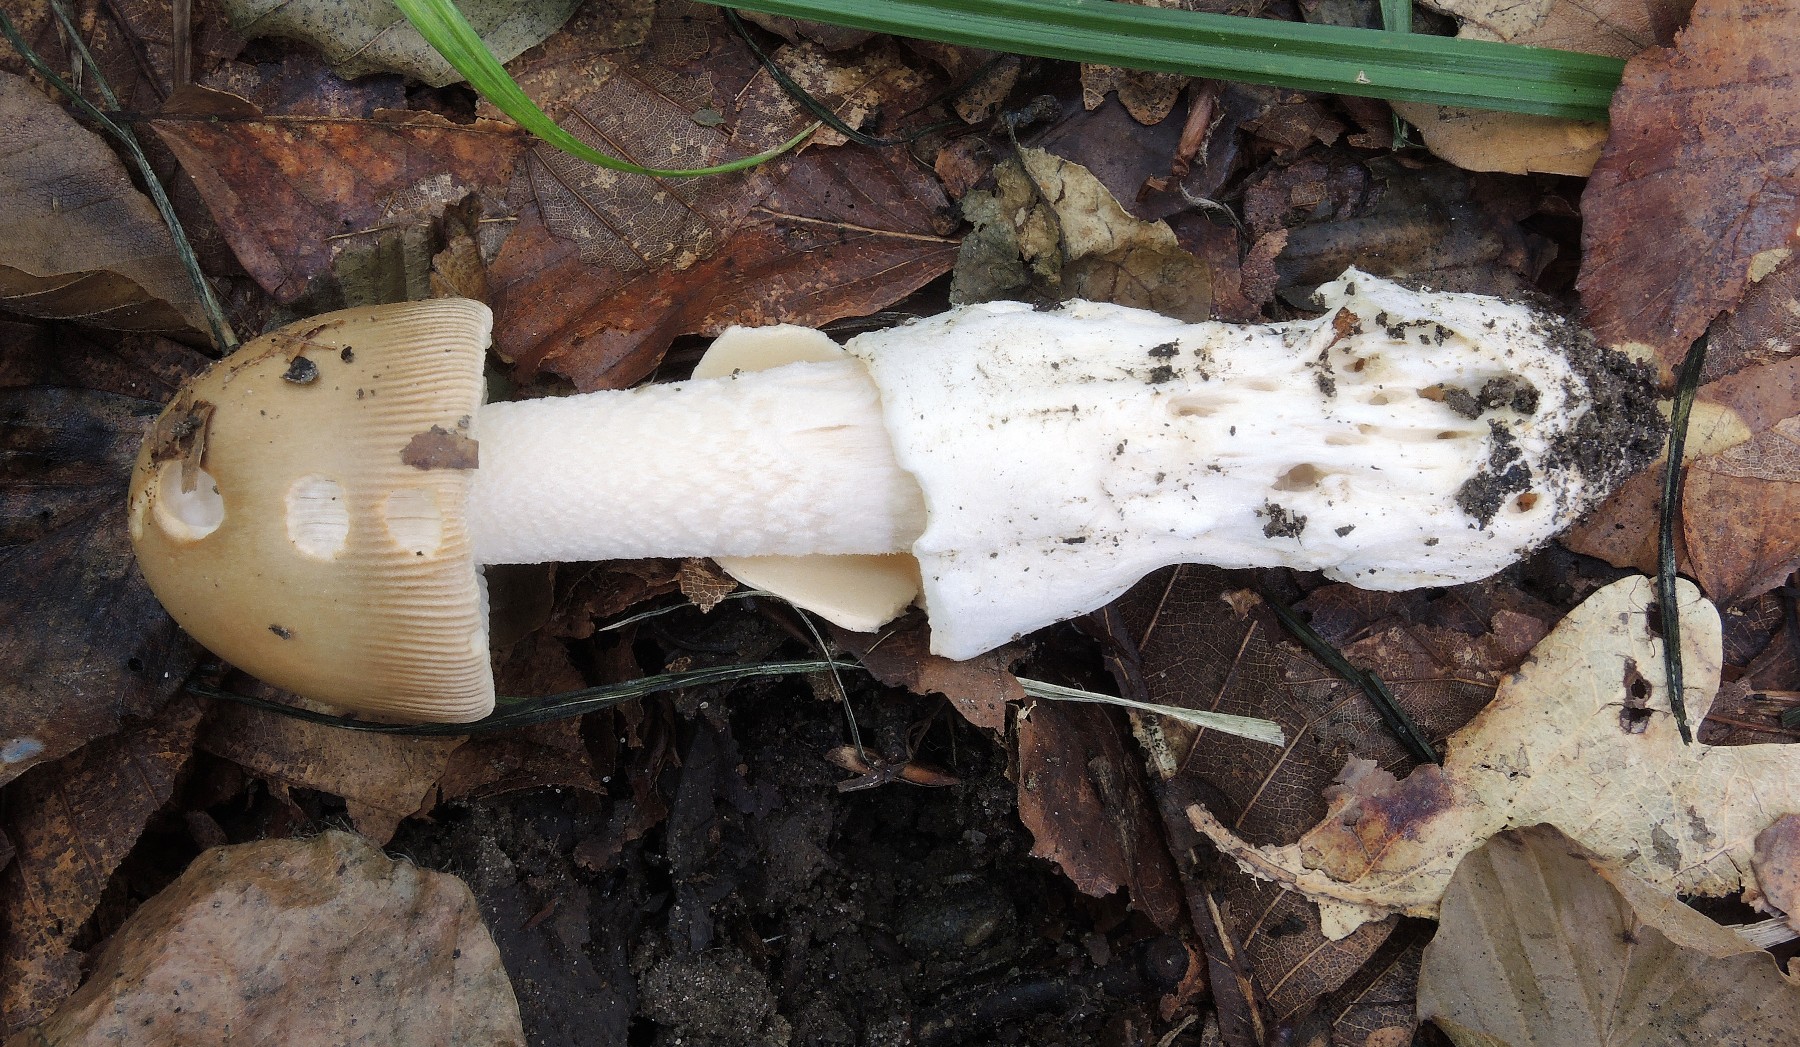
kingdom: Fungi
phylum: Basidiomycota
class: Agaricomycetes
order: Agaricales
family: Amanitaceae
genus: Amanita
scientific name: Amanita dryophila
